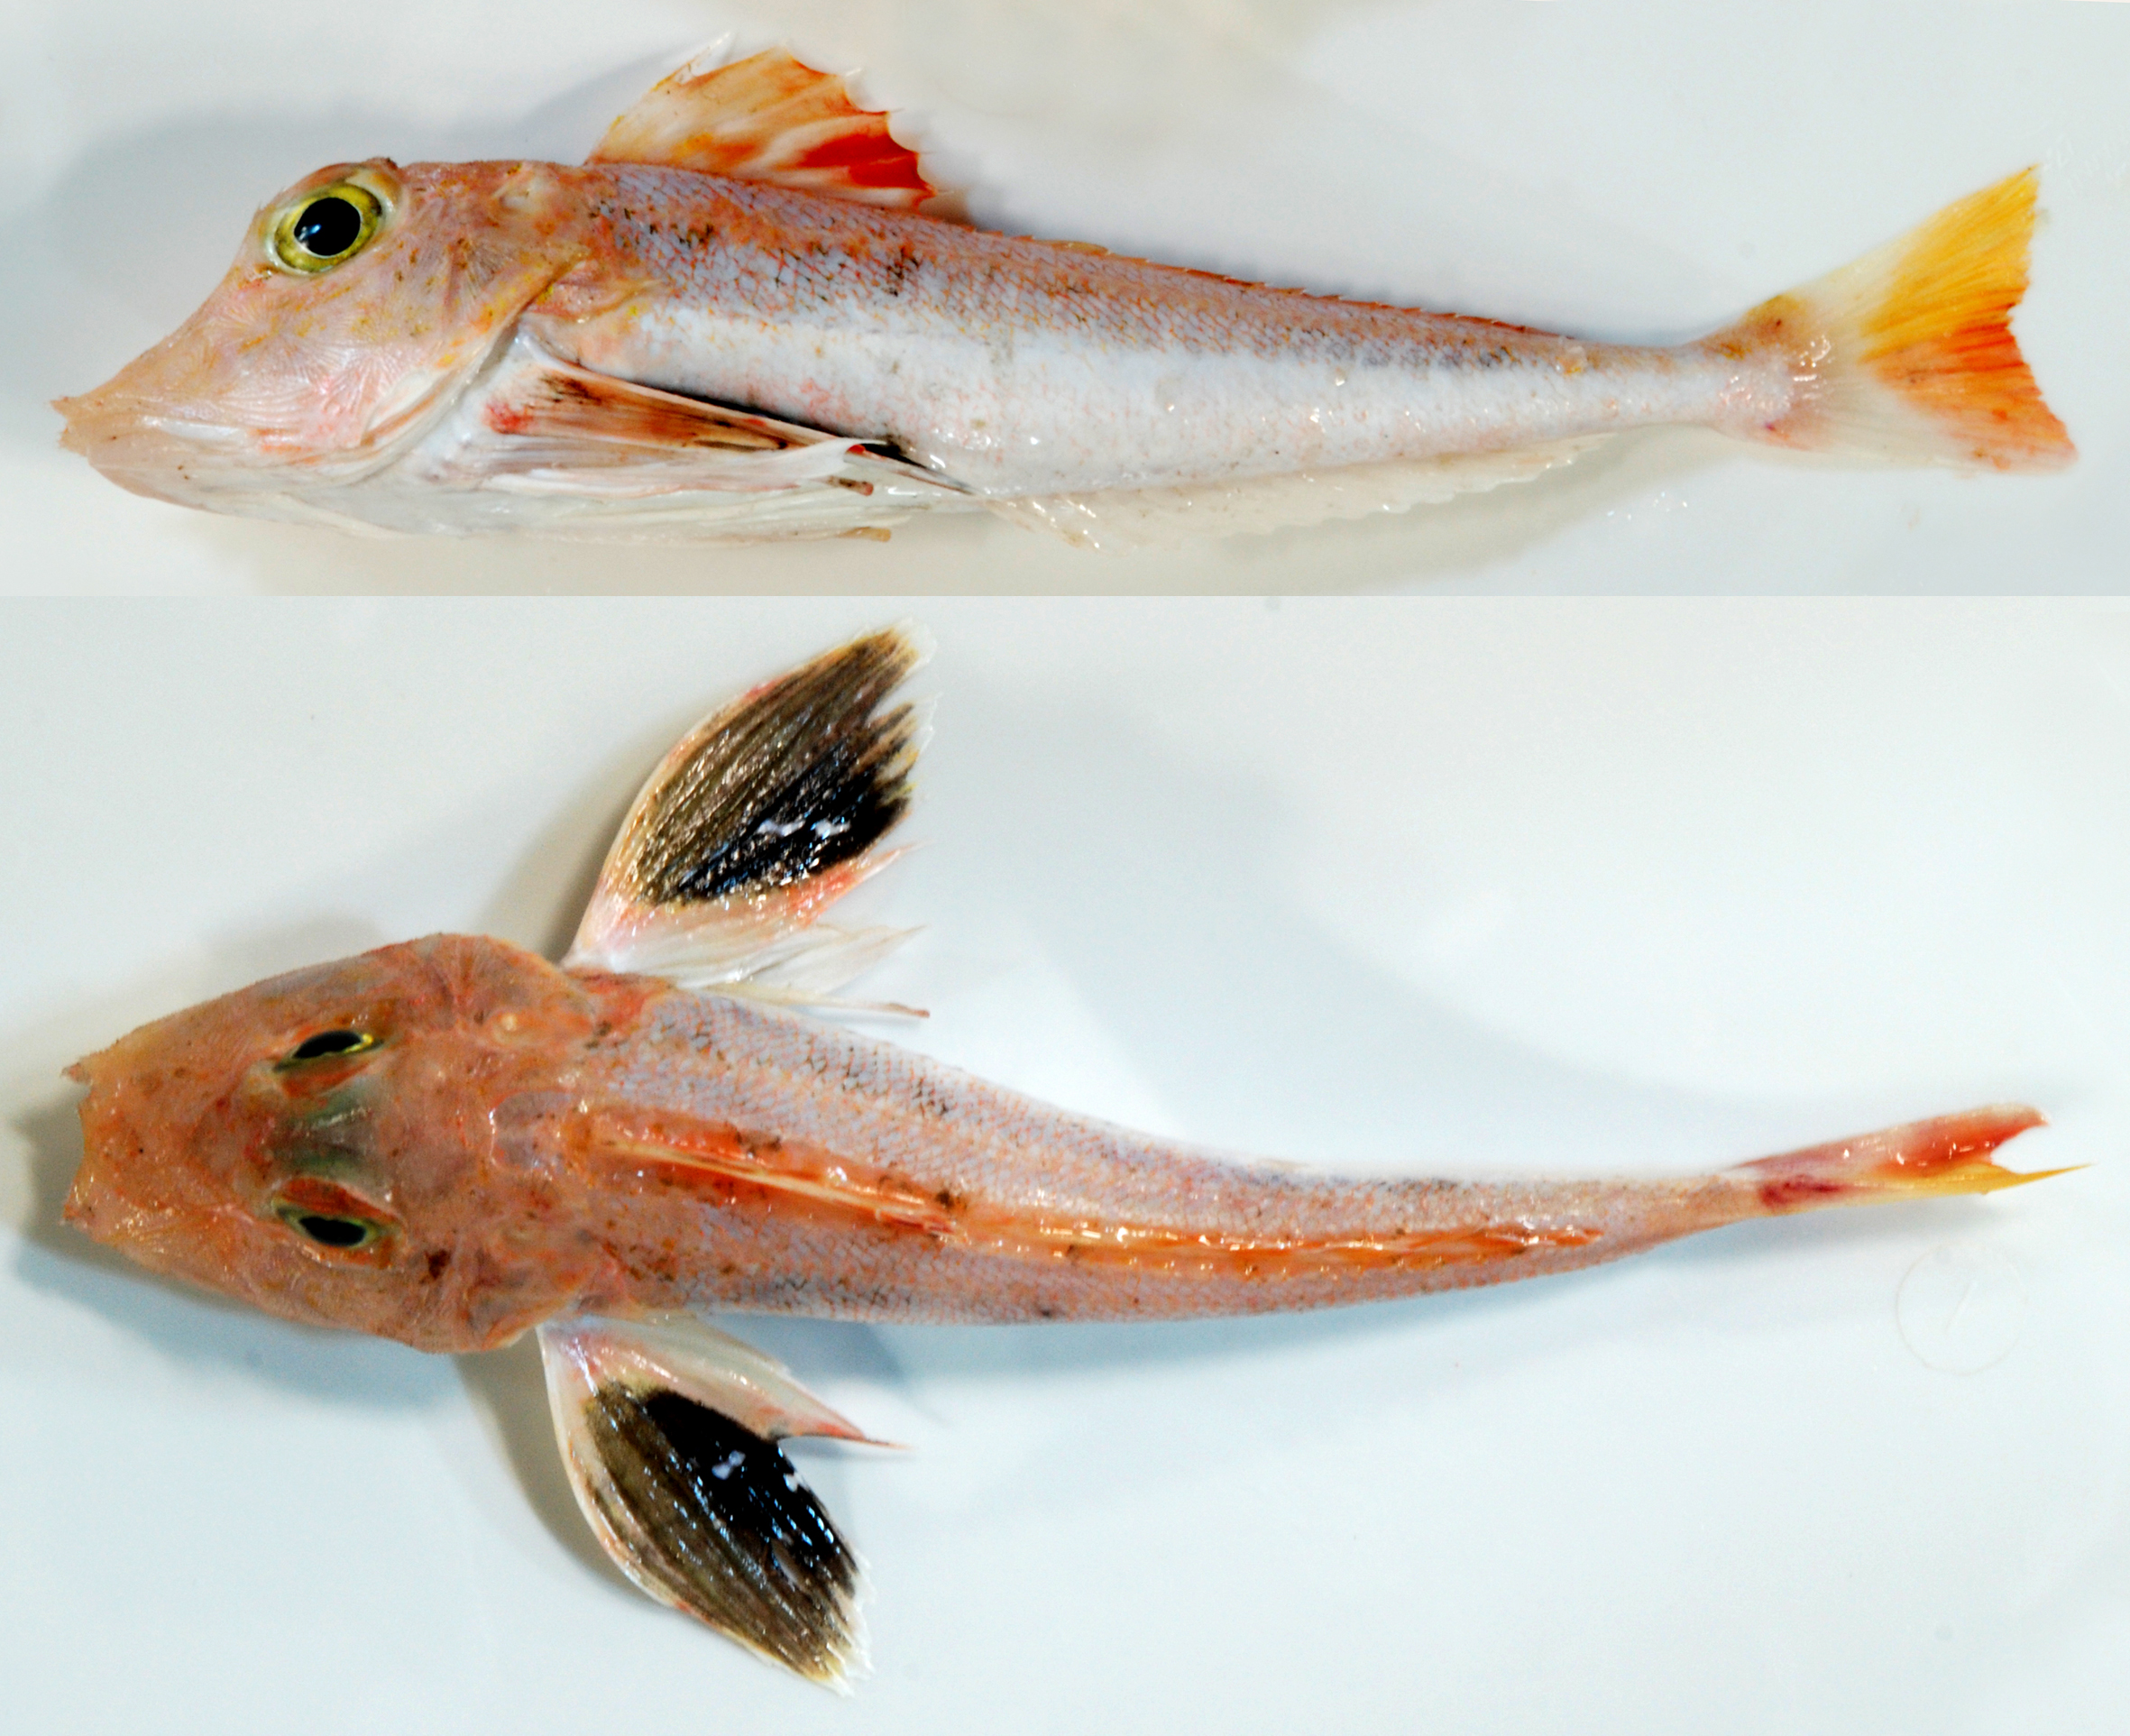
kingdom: Animalia
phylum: Chordata
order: Scorpaeniformes
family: Triglidae
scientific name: Triglidae
